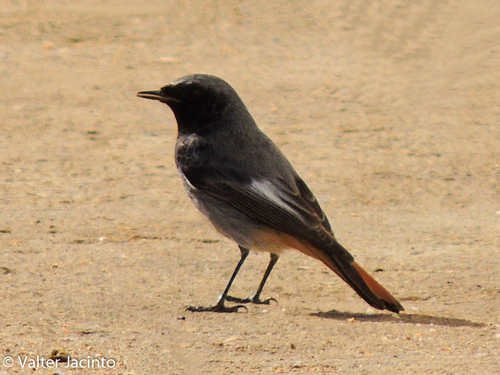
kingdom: Animalia
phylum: Chordata
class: Aves
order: Passeriformes
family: Muscicapidae
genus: Phoenicurus
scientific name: Phoenicurus ochruros
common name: Black redstart
